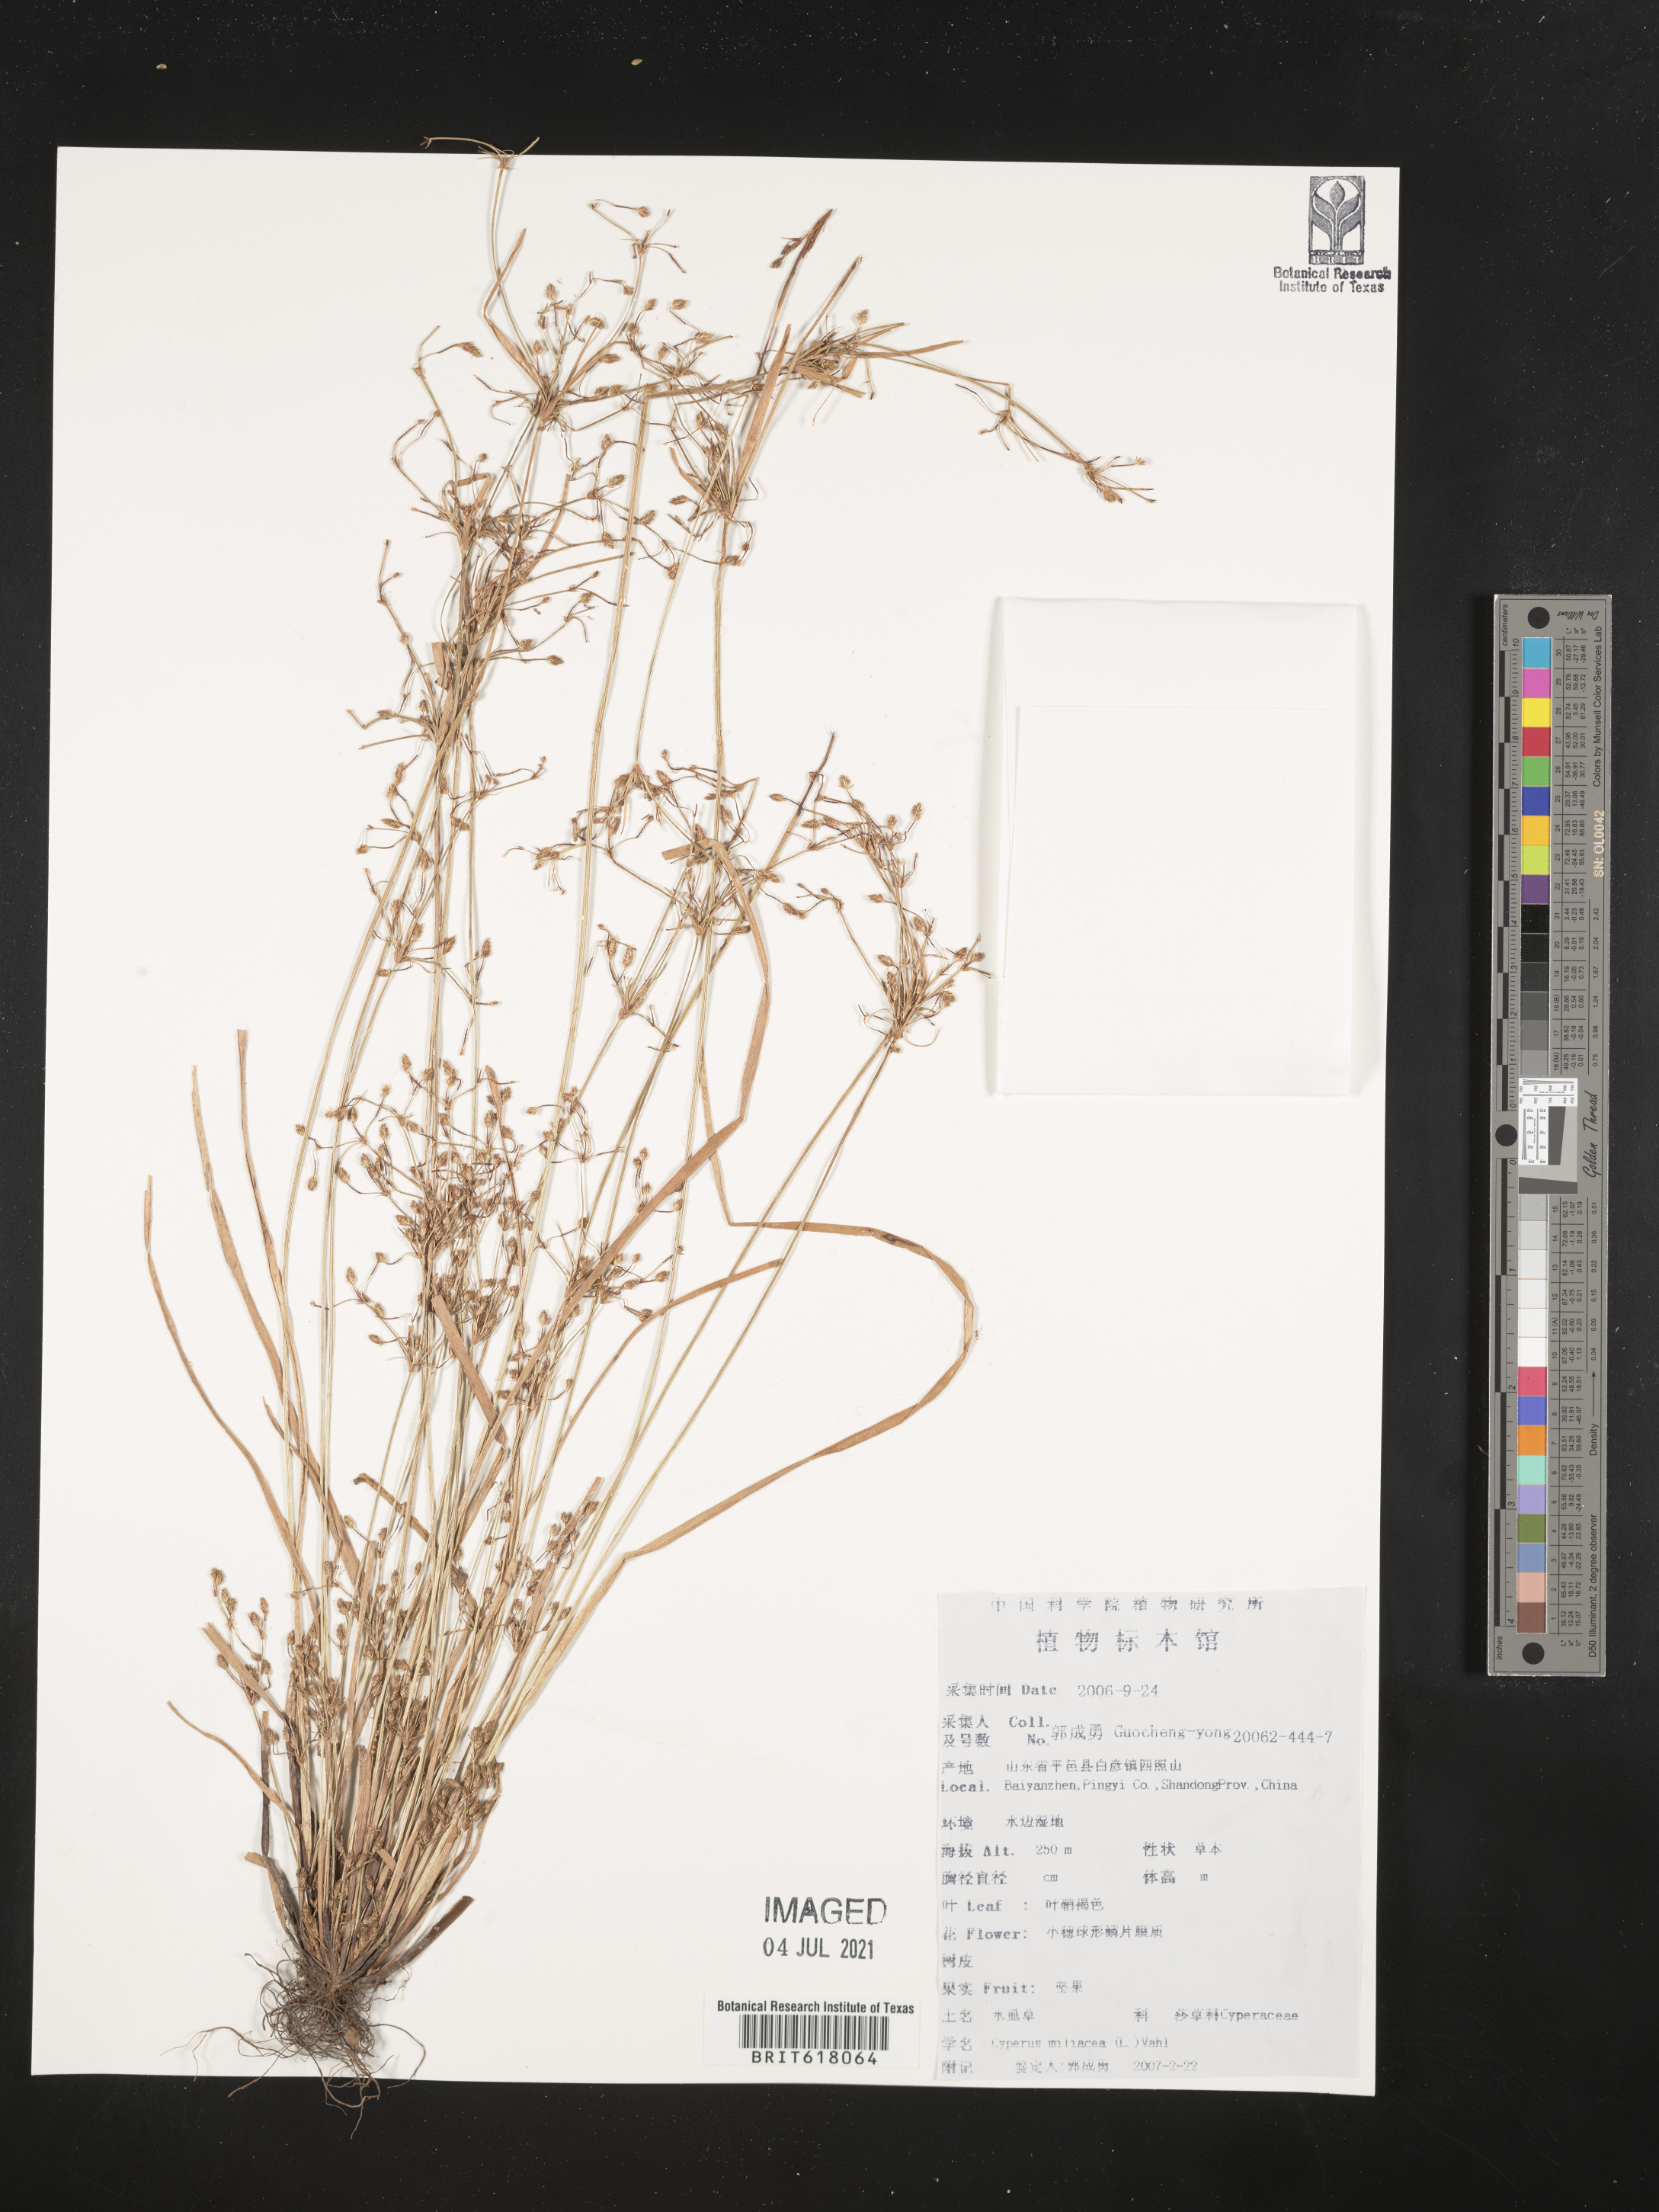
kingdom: Plantae
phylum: Tracheophyta
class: Liliopsida
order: Poales
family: Cyperaceae
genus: Cyperus
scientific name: Cyperus
